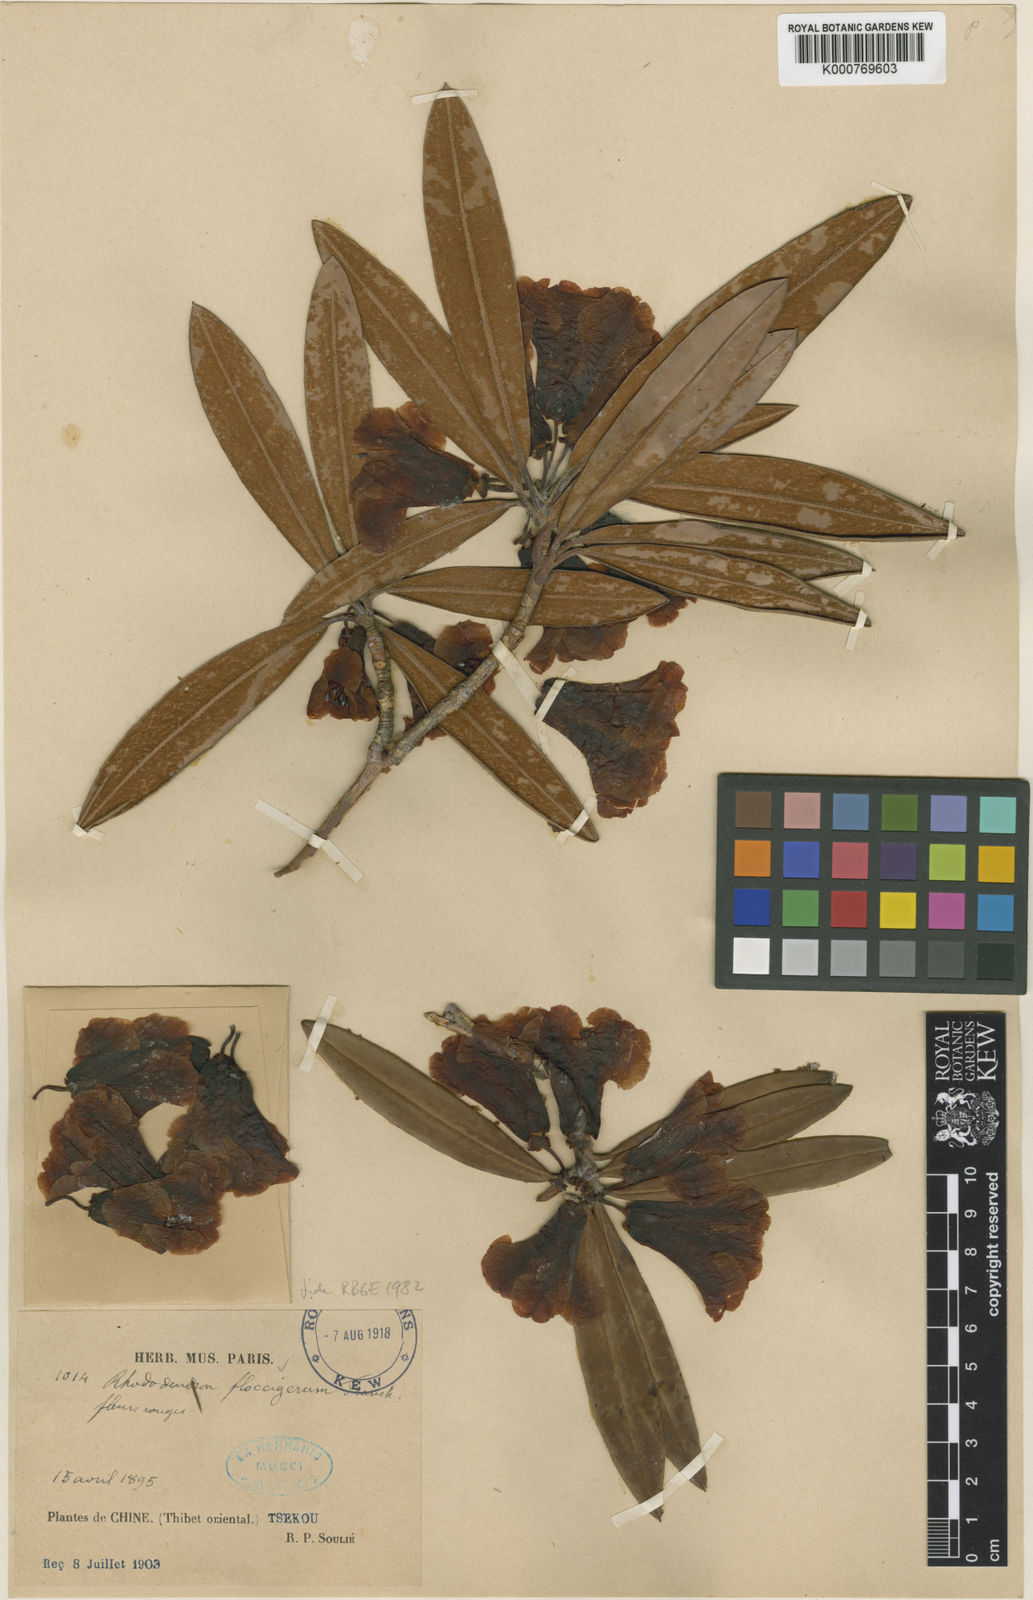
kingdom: Plantae
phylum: Tracheophyta
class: Magnoliopsida
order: Ericales
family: Ericaceae
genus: Rhododendron
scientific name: Rhododendron floccigerum
